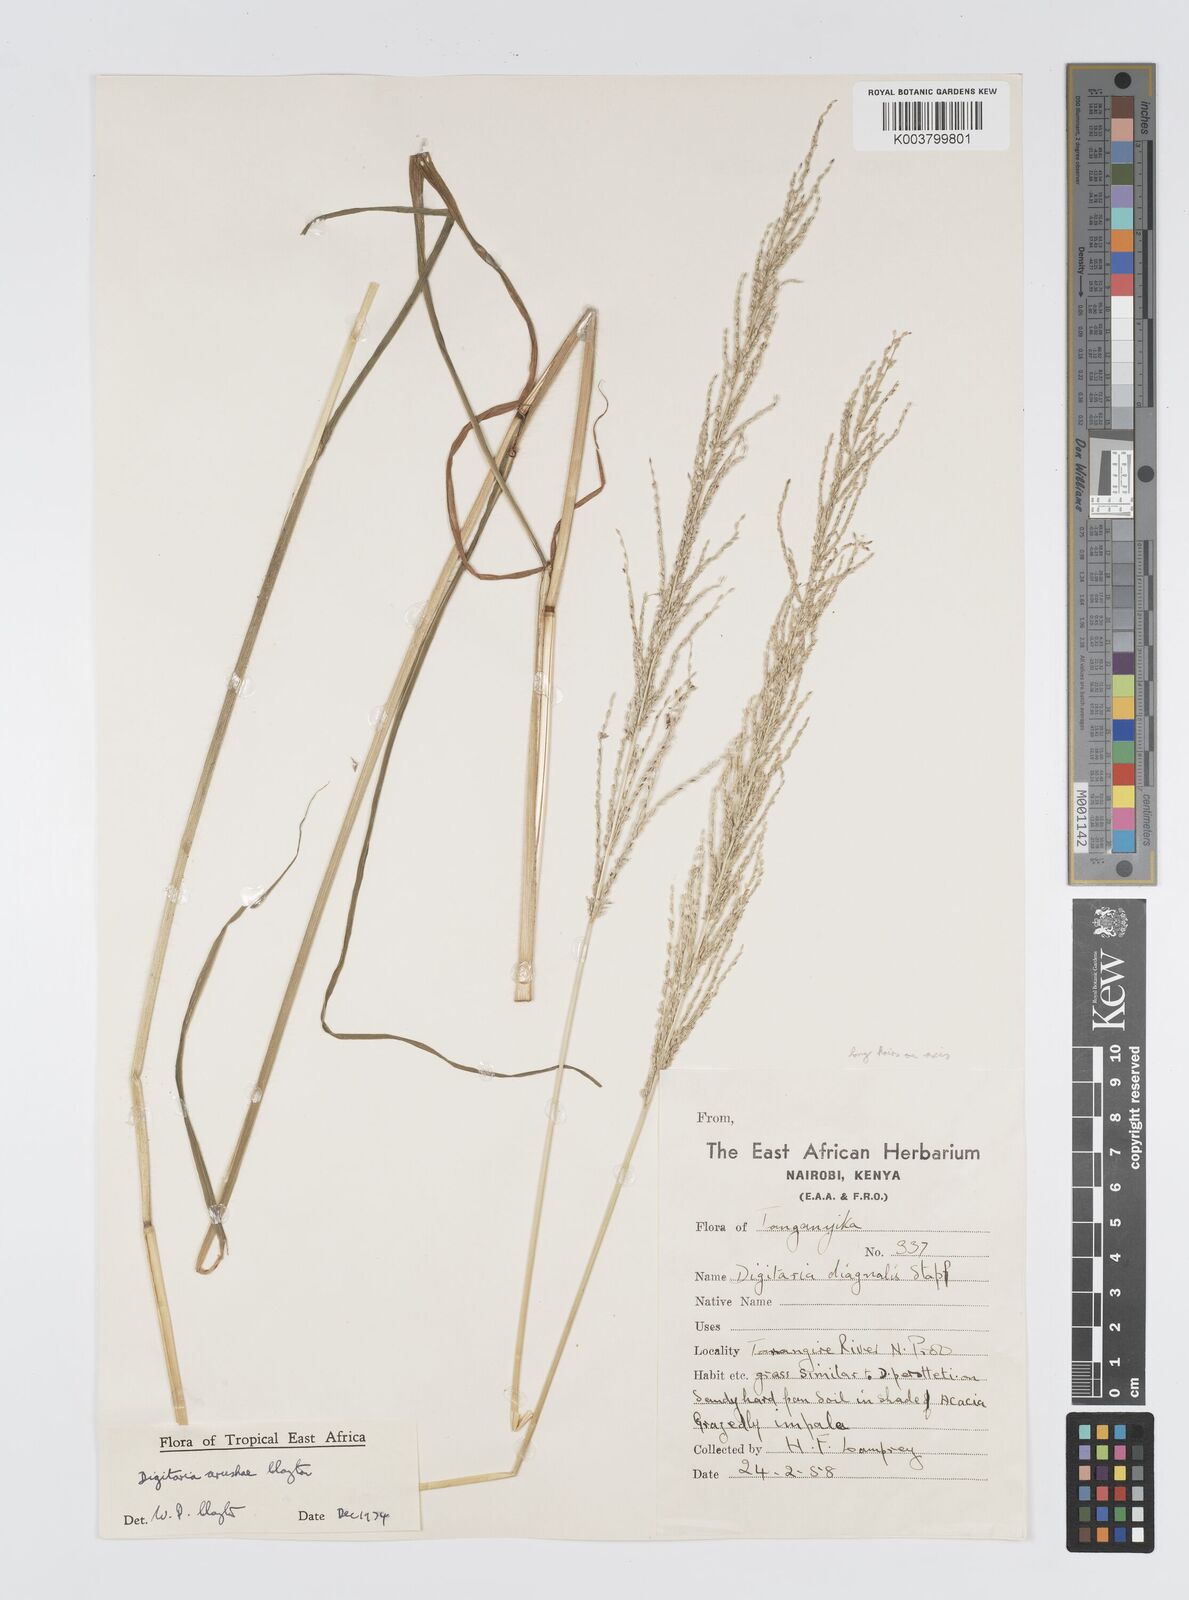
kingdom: Plantae
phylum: Tracheophyta
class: Liliopsida
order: Poales
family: Poaceae
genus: Digitaria
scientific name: Digitaria arushae
